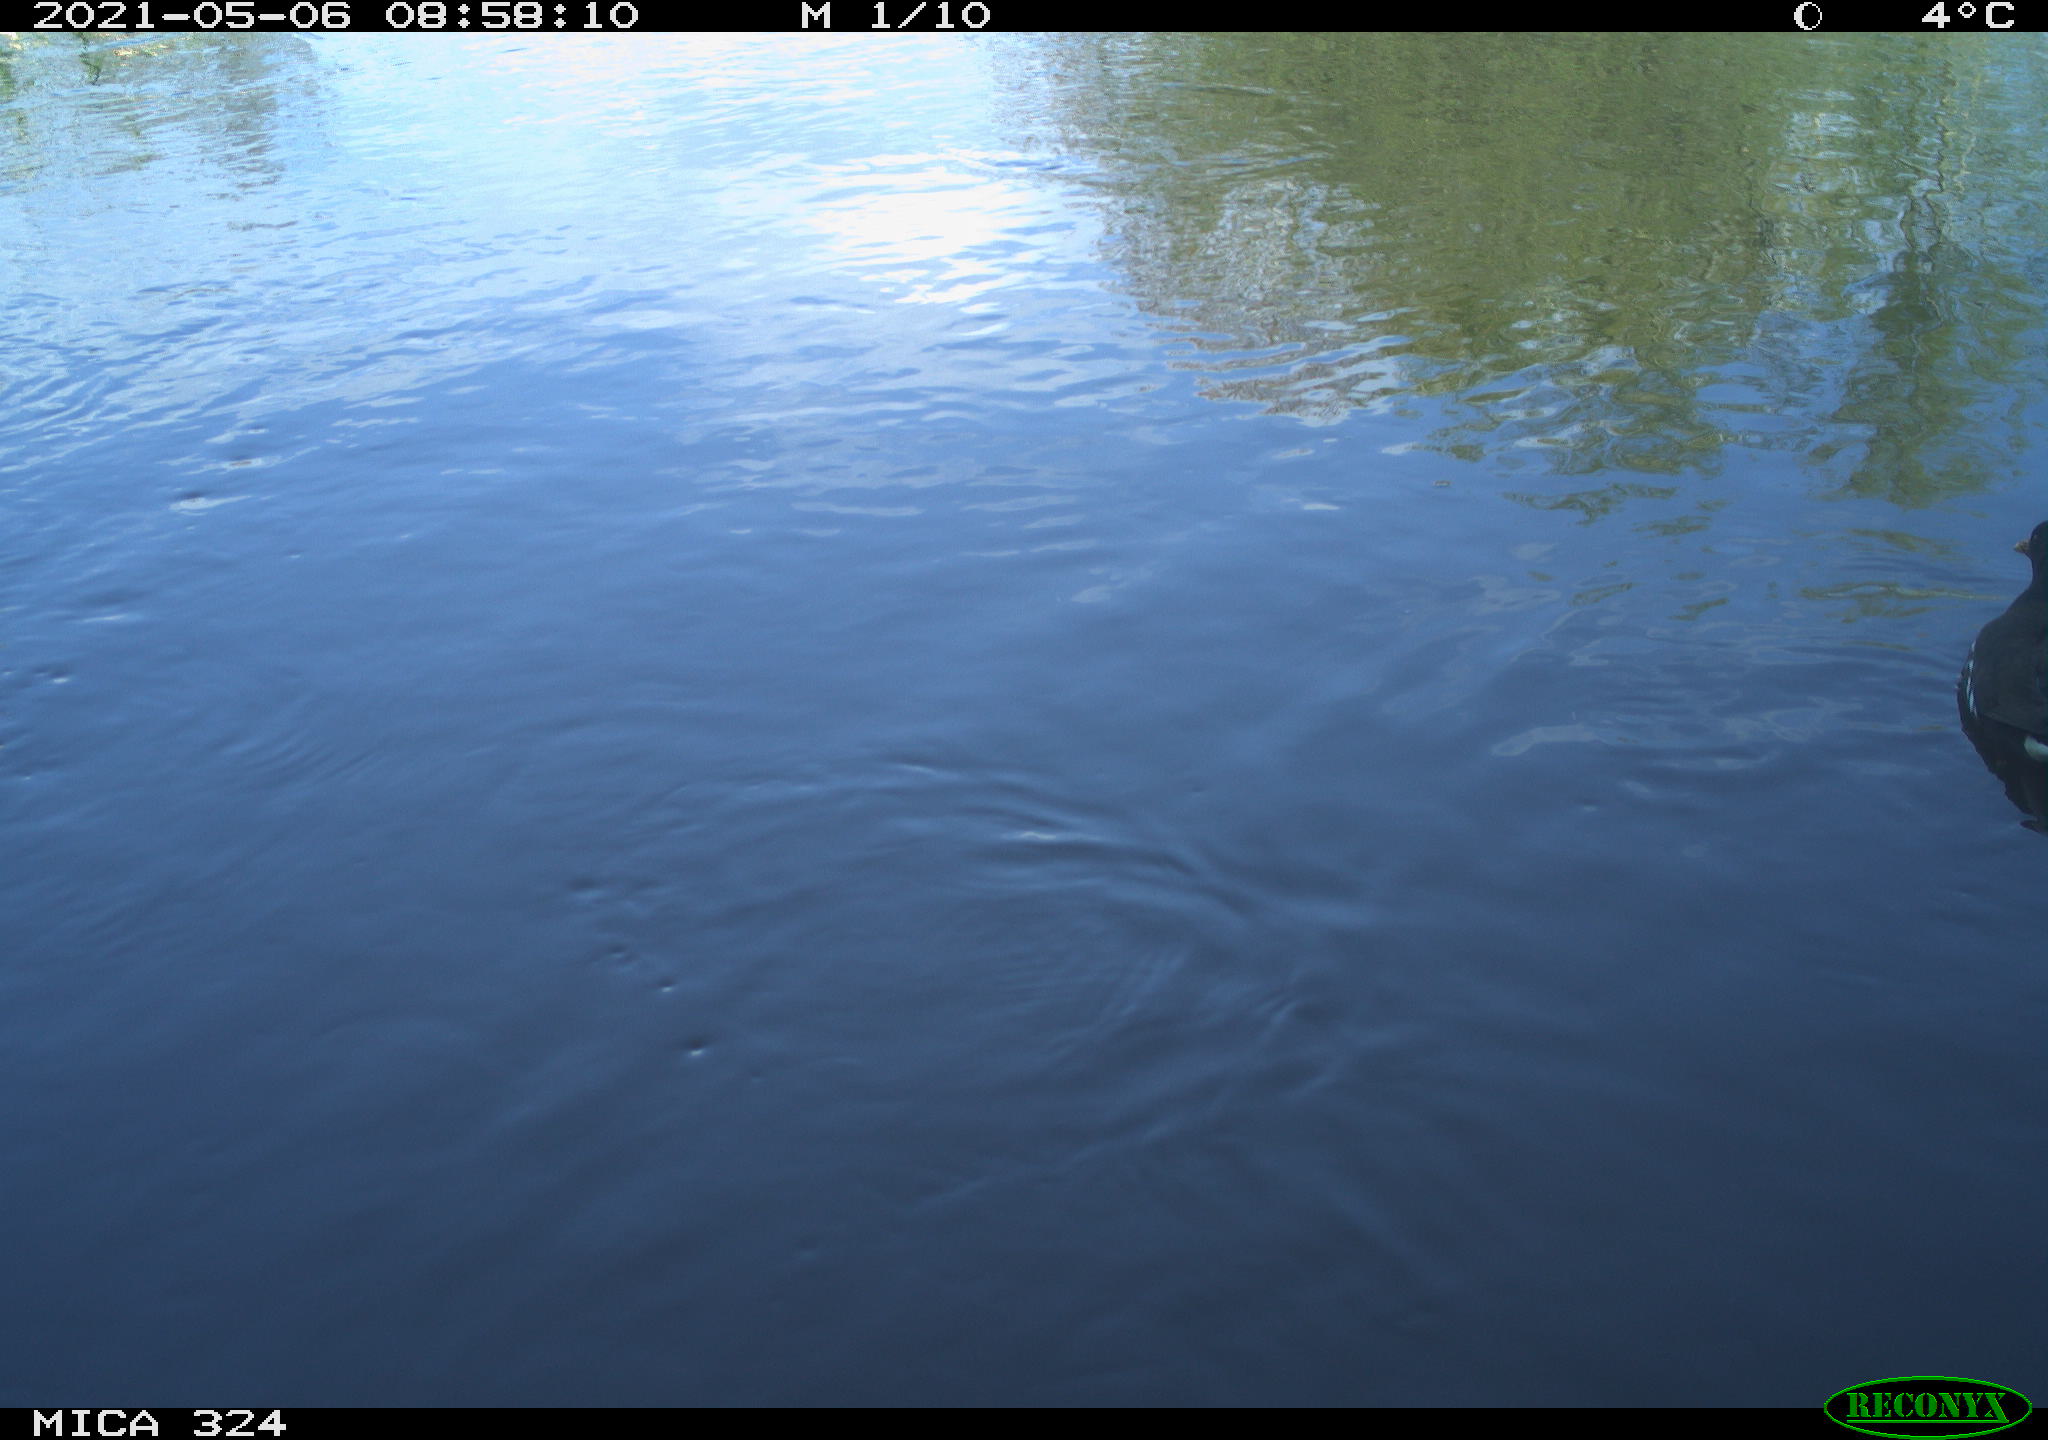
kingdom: Animalia
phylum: Chordata
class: Aves
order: Gruiformes
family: Rallidae
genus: Gallinula
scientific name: Gallinula chloropus
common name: Common moorhen
